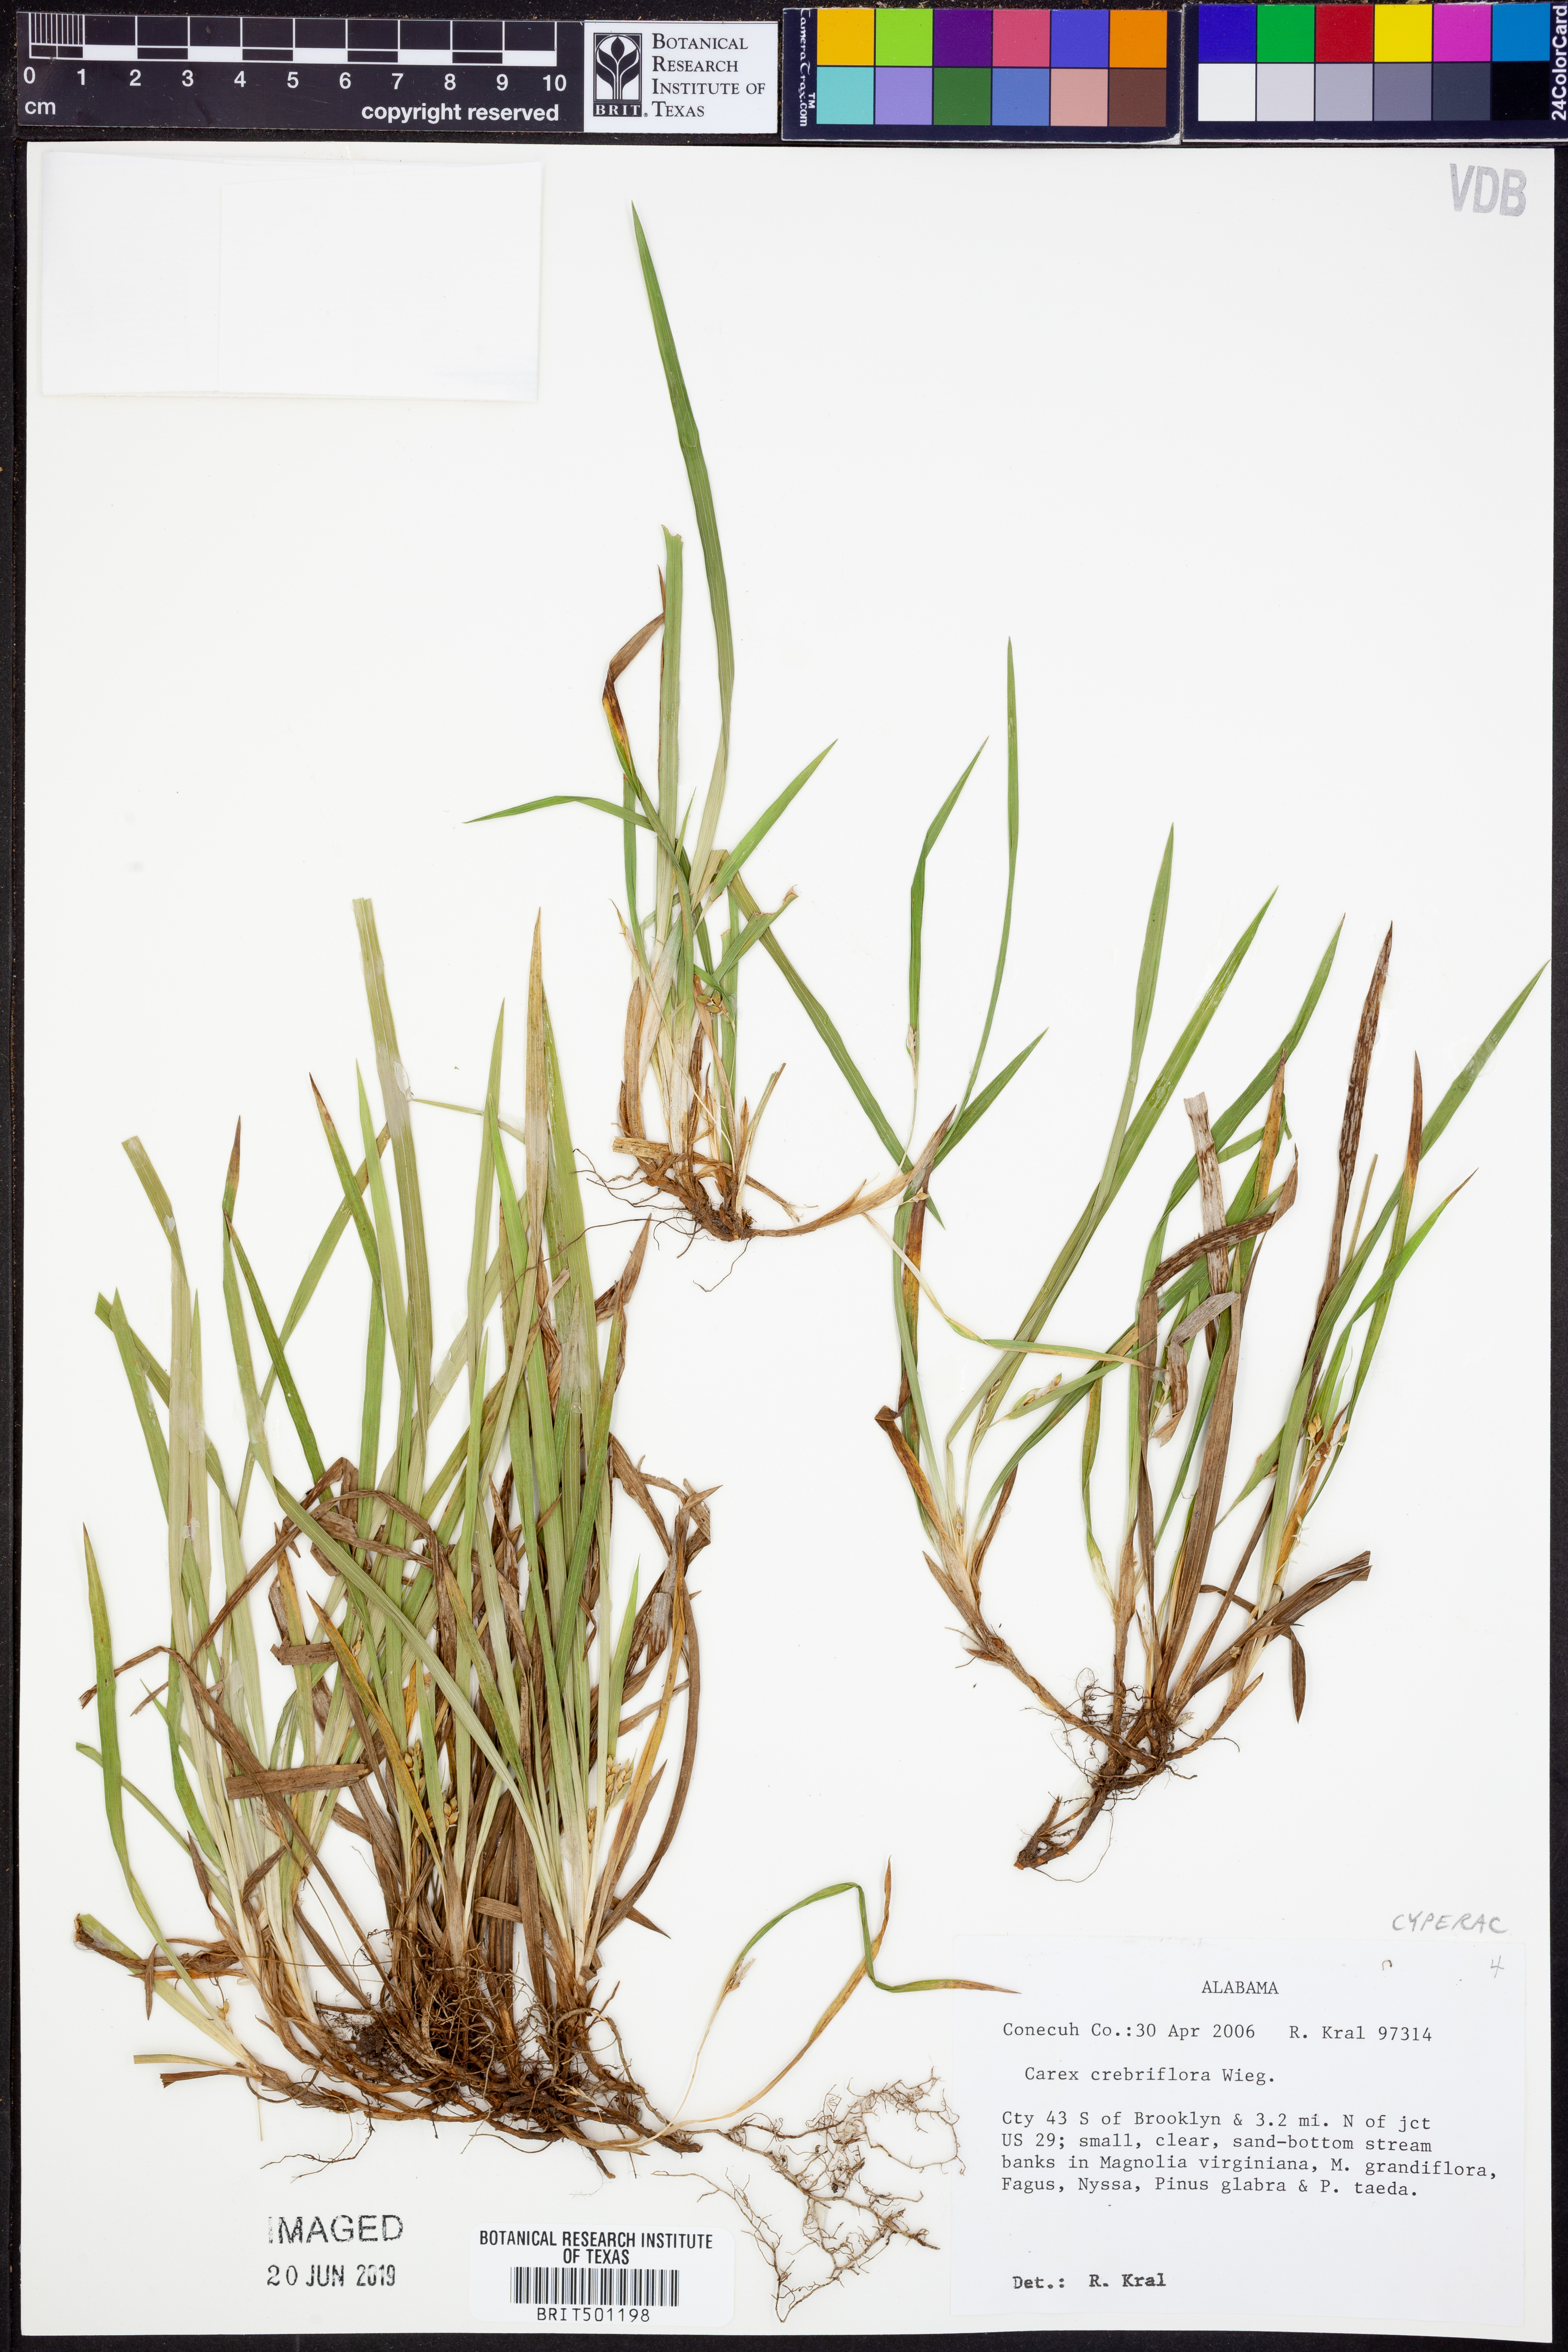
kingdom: Plantae
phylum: Tracheophyta
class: Liliopsida
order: Poales
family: Cyperaceae
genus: Carex
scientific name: Carex crebriflora
